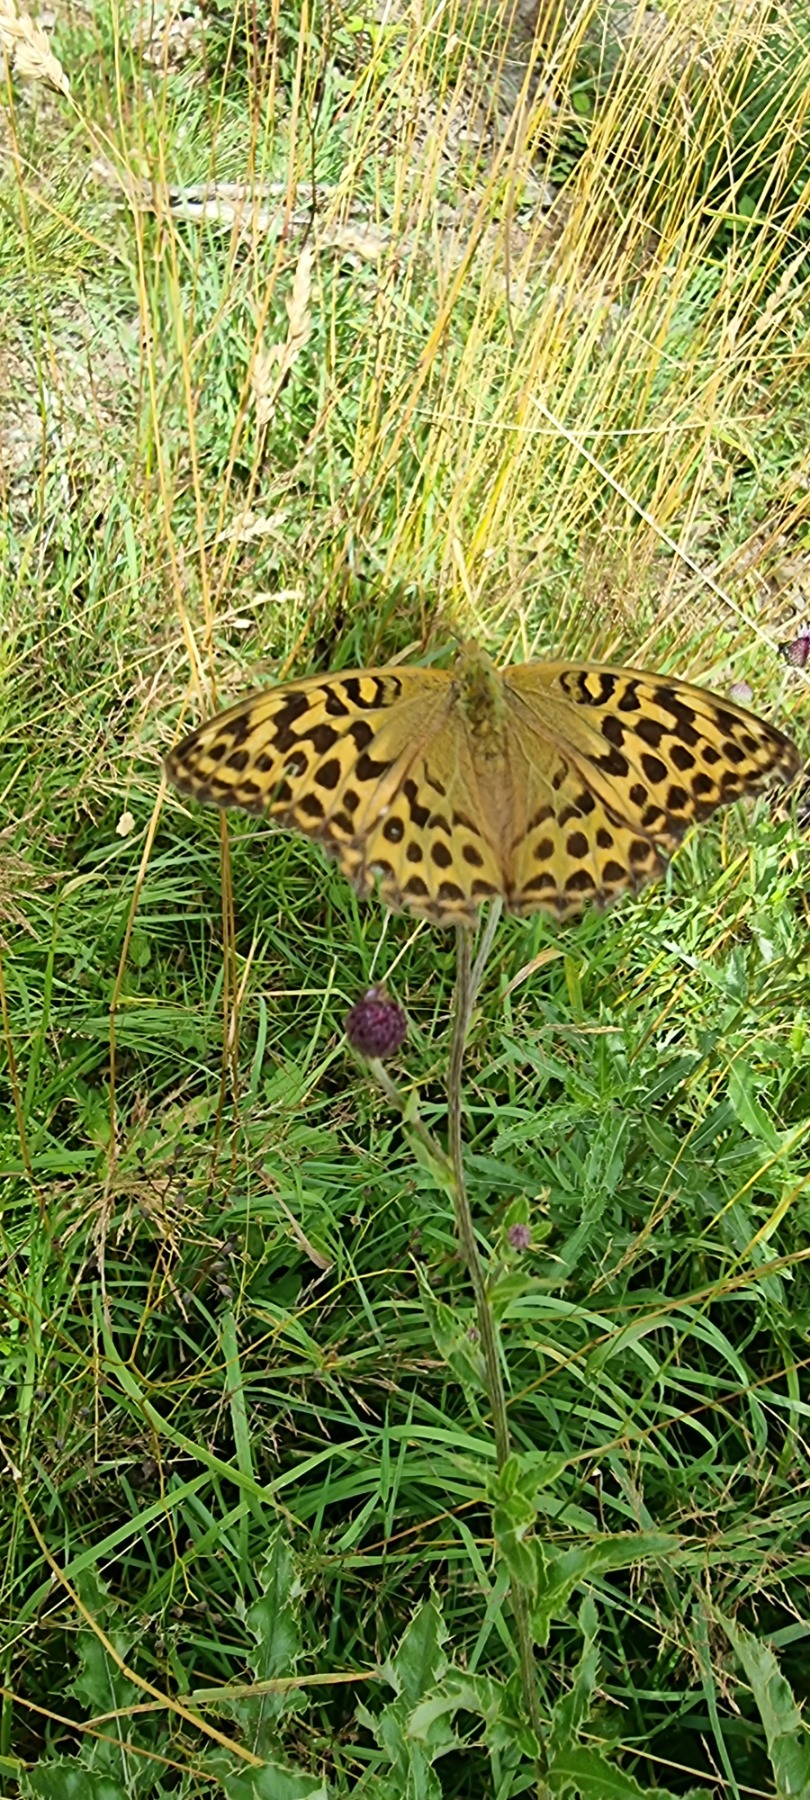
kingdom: Animalia
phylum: Arthropoda
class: Insecta
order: Lepidoptera
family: Nymphalidae
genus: Argynnis
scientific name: Argynnis paphia
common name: Kejserkåbe
